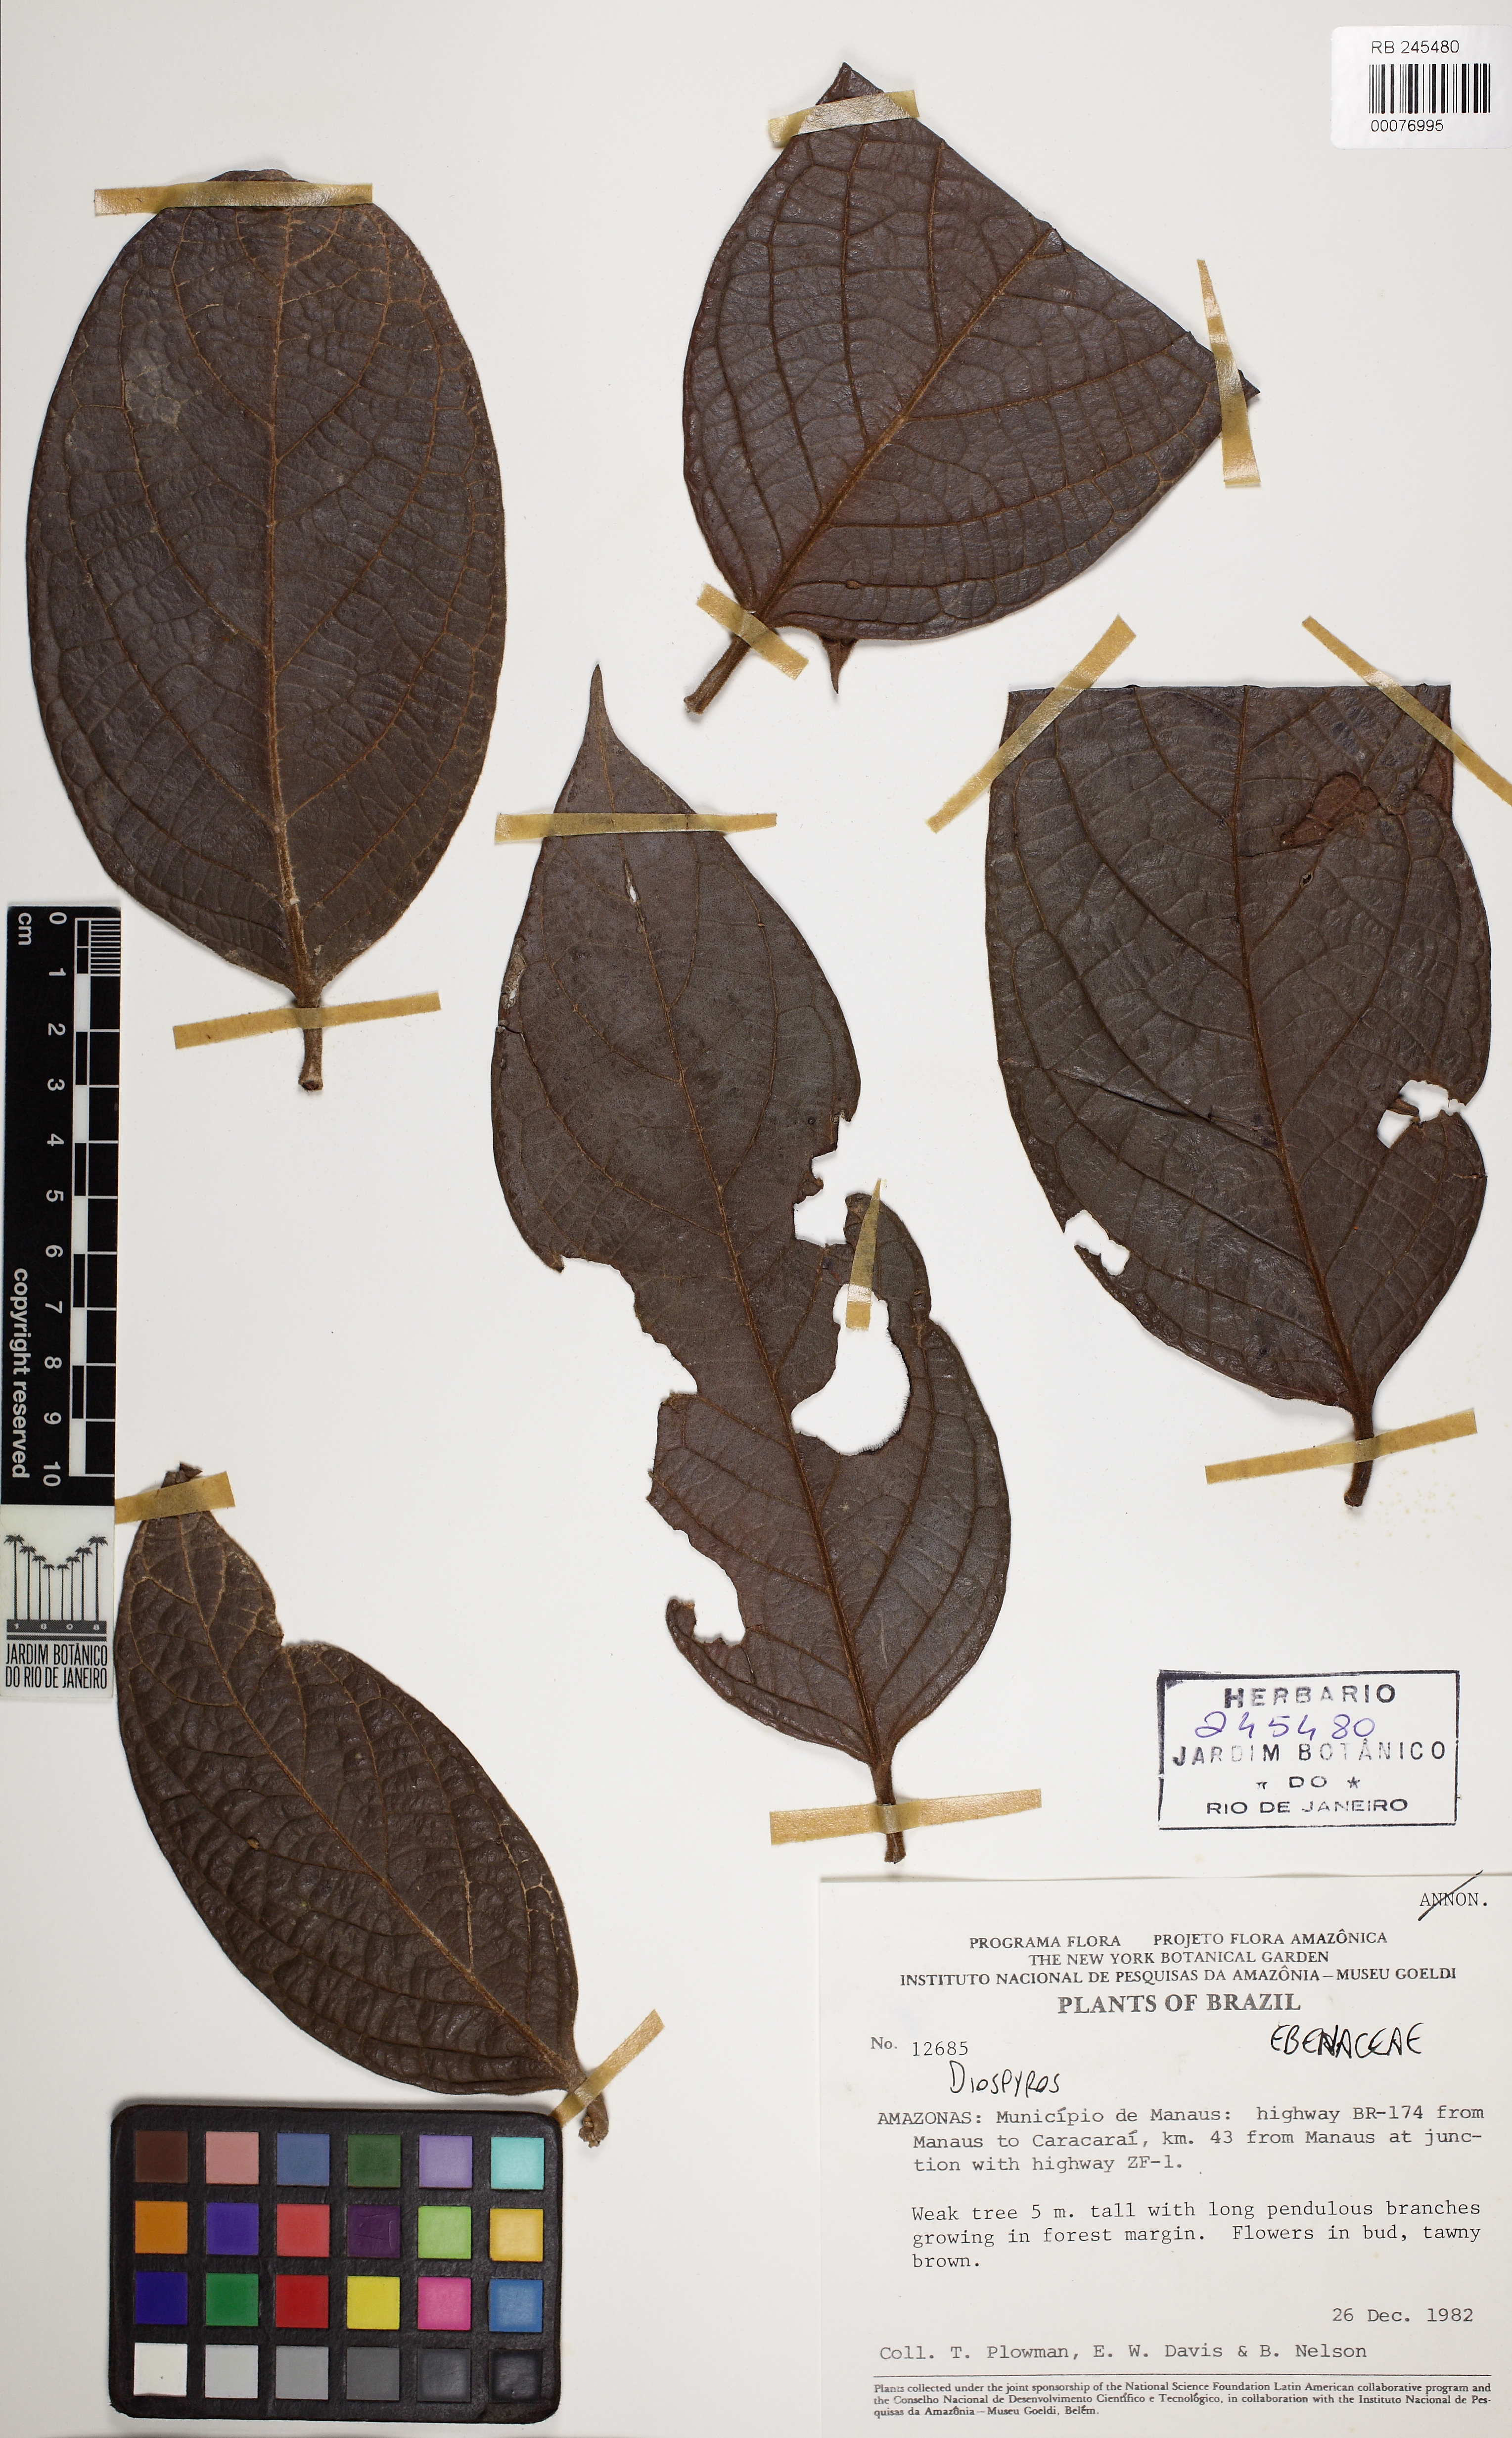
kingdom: Plantae
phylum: Tracheophyta
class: Magnoliopsida
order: Ericales
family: Ebenaceae
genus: Diospyros
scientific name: Diospyros bullata
